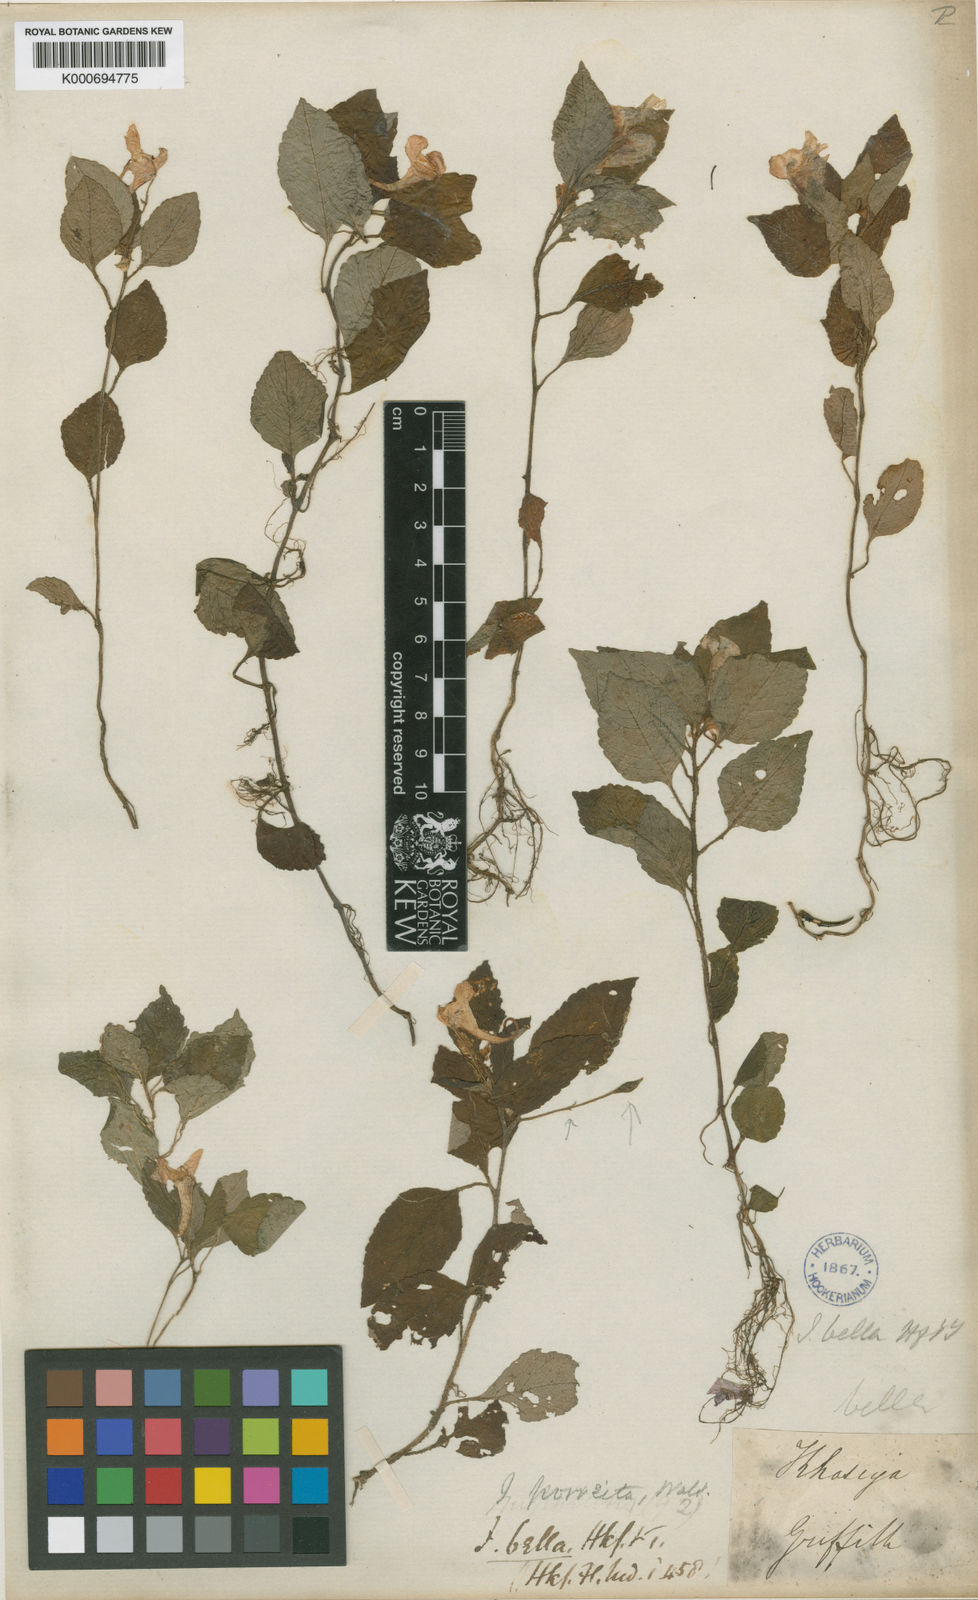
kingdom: Plantae
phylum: Tracheophyta
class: Magnoliopsida
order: Ericales
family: Balsaminaceae
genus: Impatiens
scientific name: Impatiens
